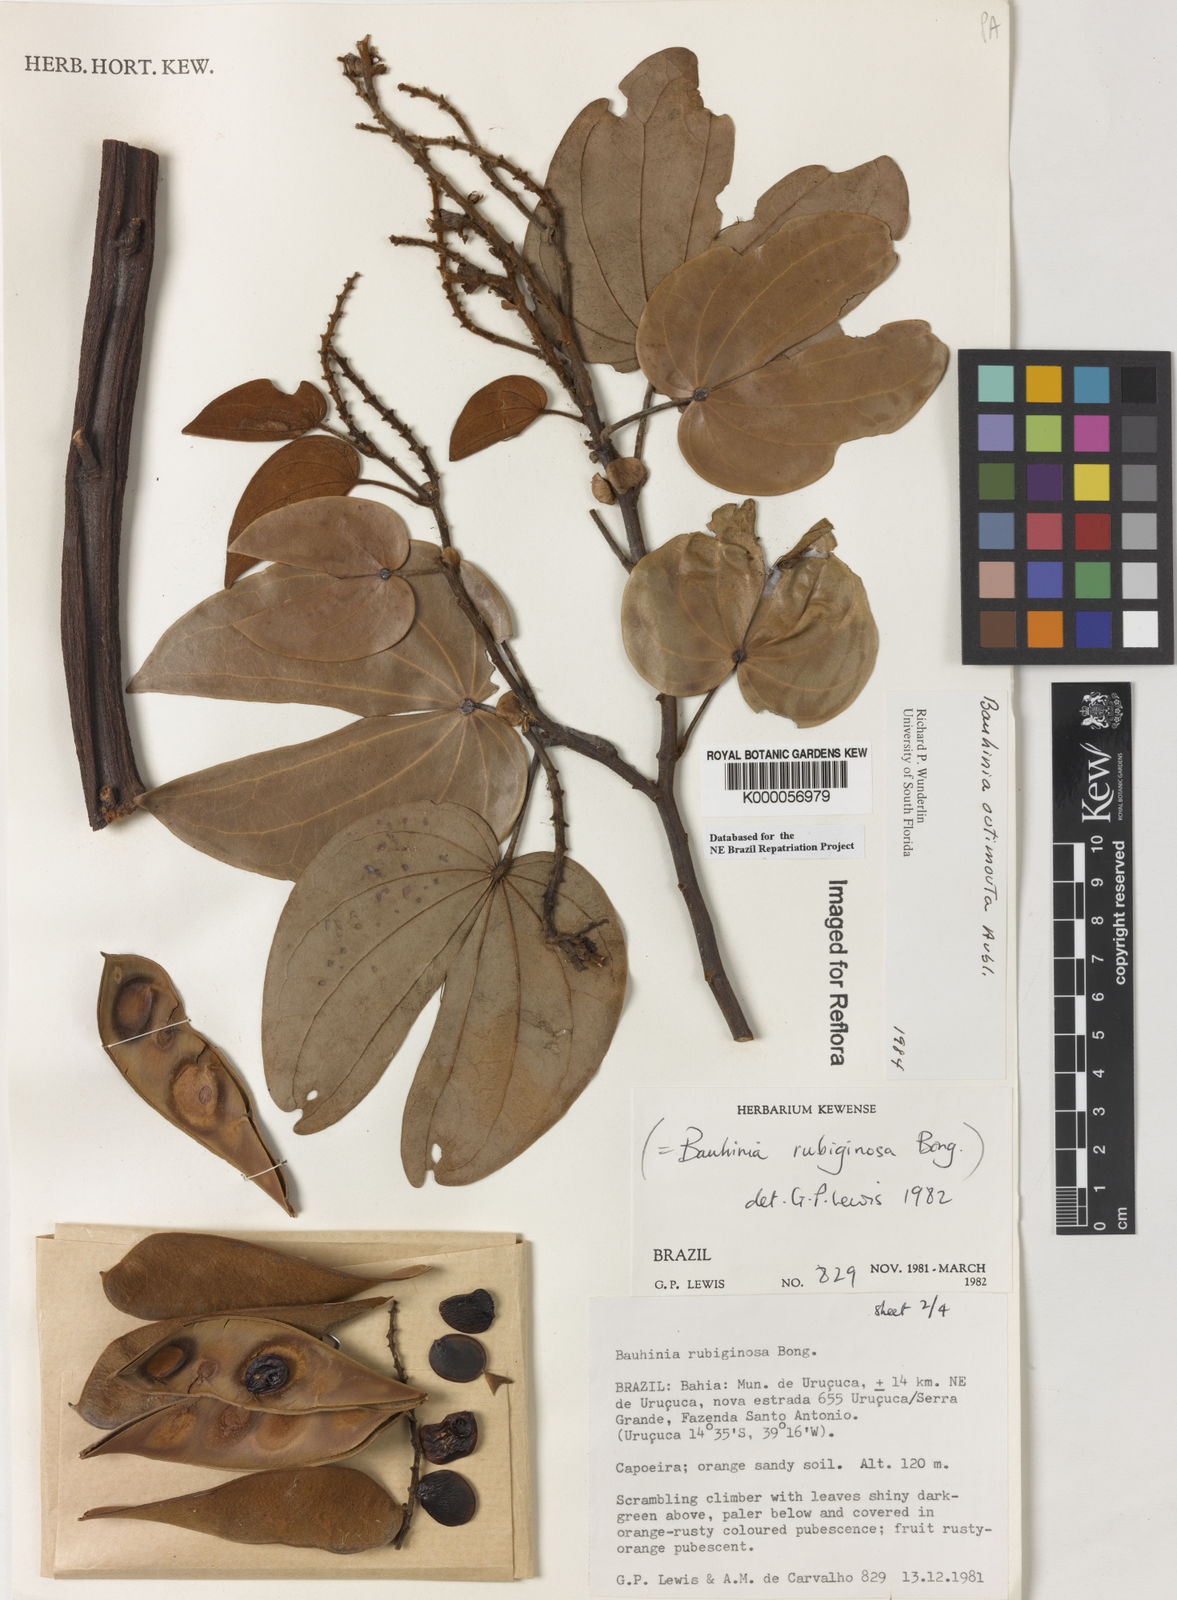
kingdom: Plantae
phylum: Tracheophyta
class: Magnoliopsida
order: Fabales
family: Fabaceae
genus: Schnella
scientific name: Schnella outimouta
